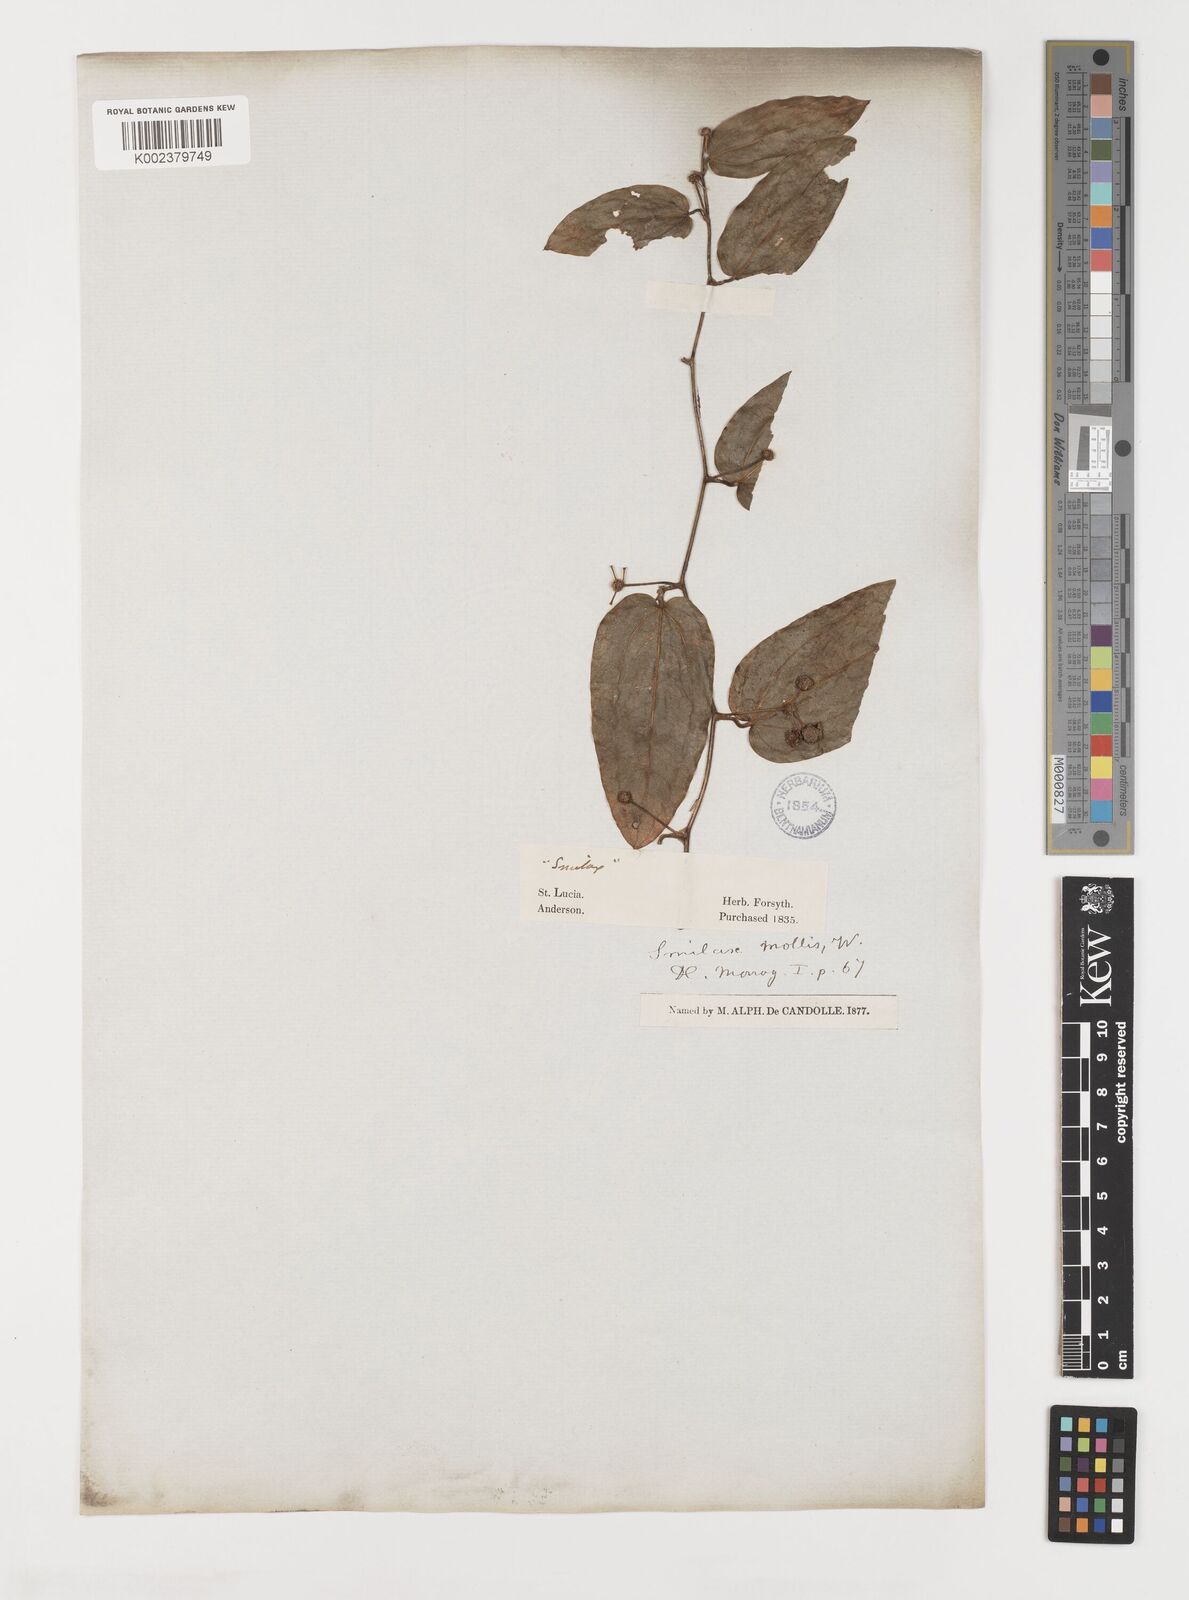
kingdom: Plantae
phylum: Tracheophyta
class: Liliopsida
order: Liliales
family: Smilacaceae
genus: Smilax
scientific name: Smilax solanifolia
